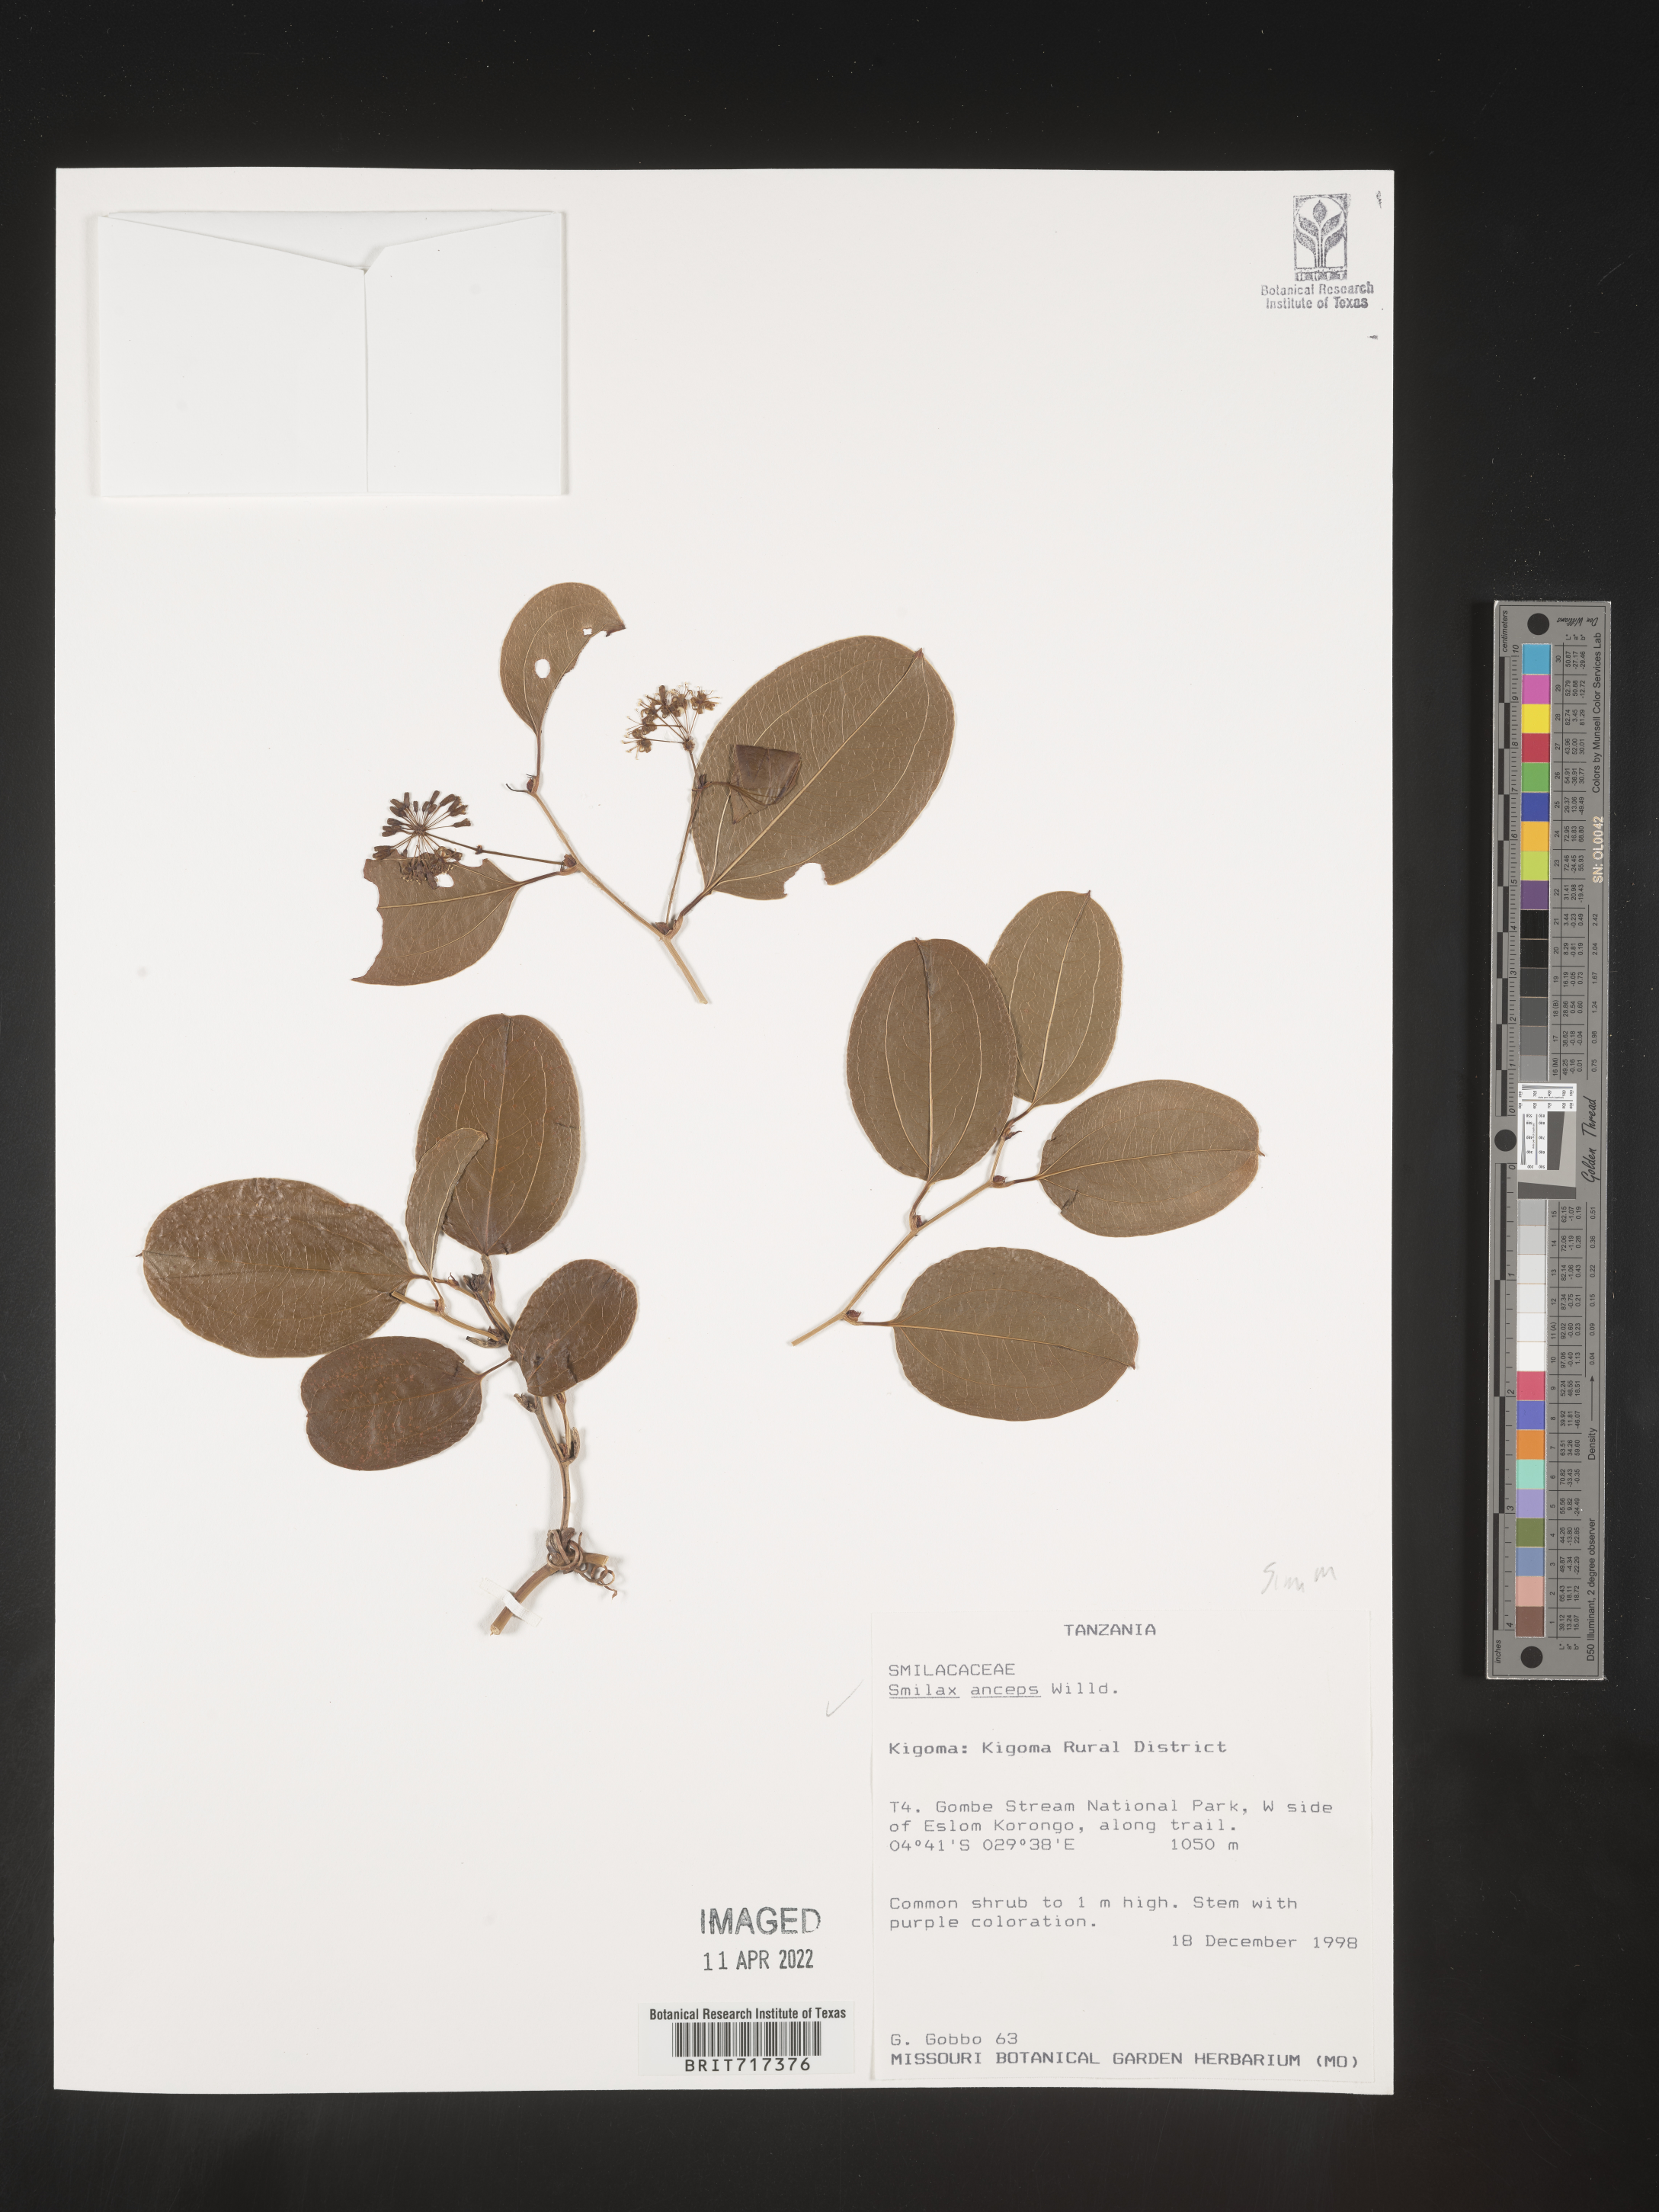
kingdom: Plantae
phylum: Tracheophyta
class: Liliopsida
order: Liliales
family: Smilacaceae
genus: Smilax
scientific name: Smilax
